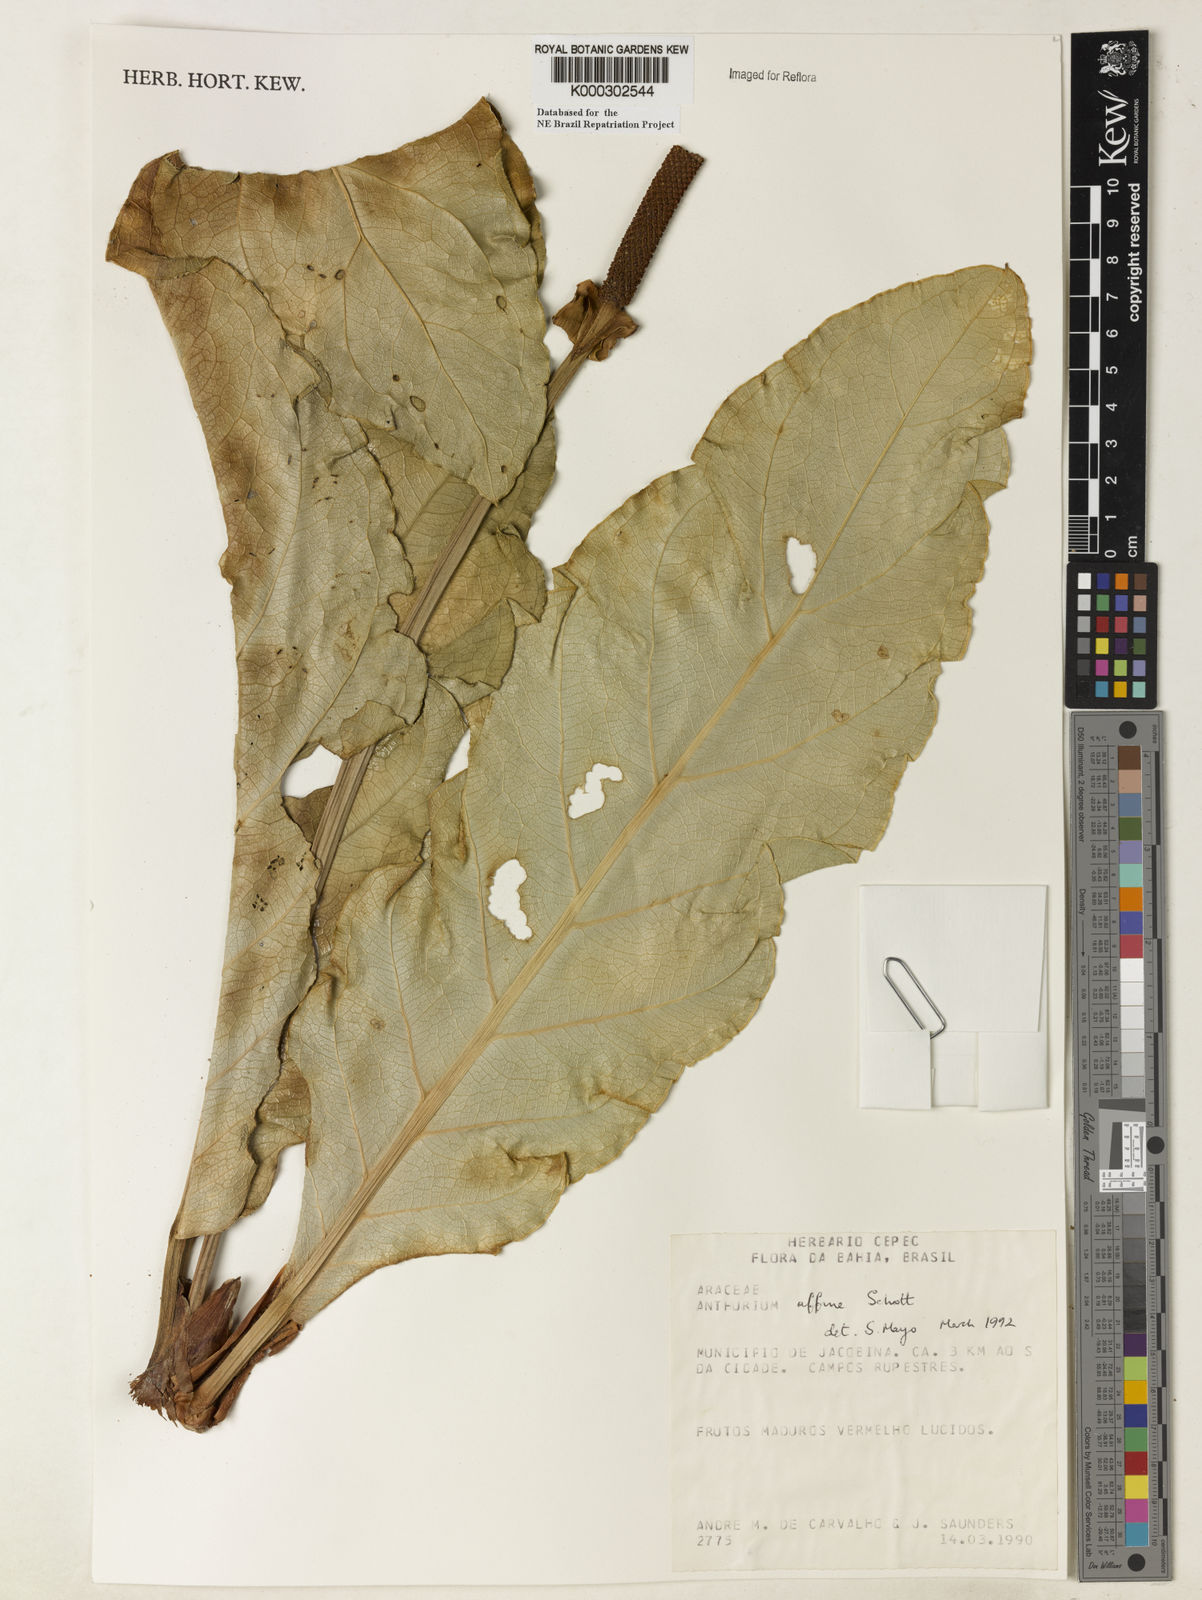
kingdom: Plantae
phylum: Tracheophyta
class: Liliopsida
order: Alismatales
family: Araceae
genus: Anthurium
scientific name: Anthurium affine
